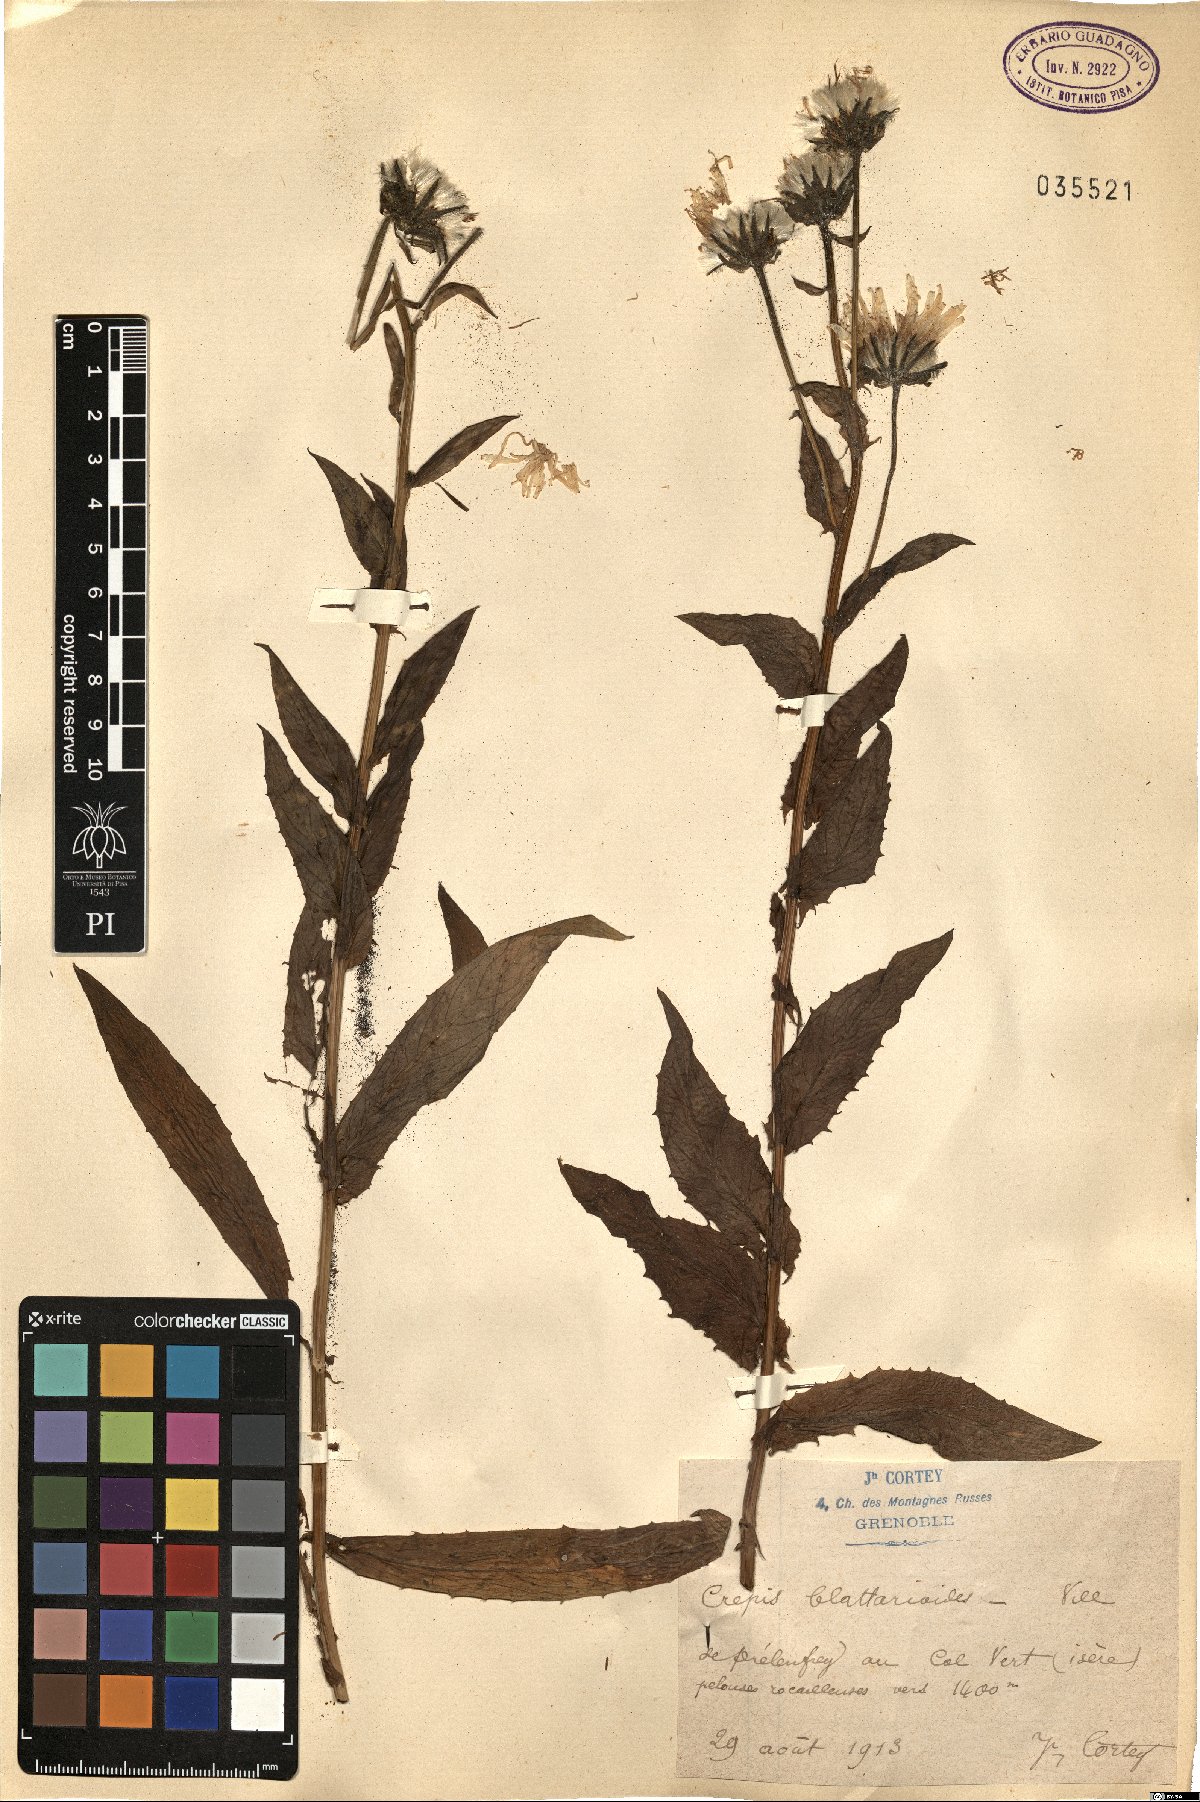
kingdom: Plantae
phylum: Tracheophyta
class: Magnoliopsida
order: Asterales
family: Asteraceae
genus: Crepis
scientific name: Crepis blattarioides
